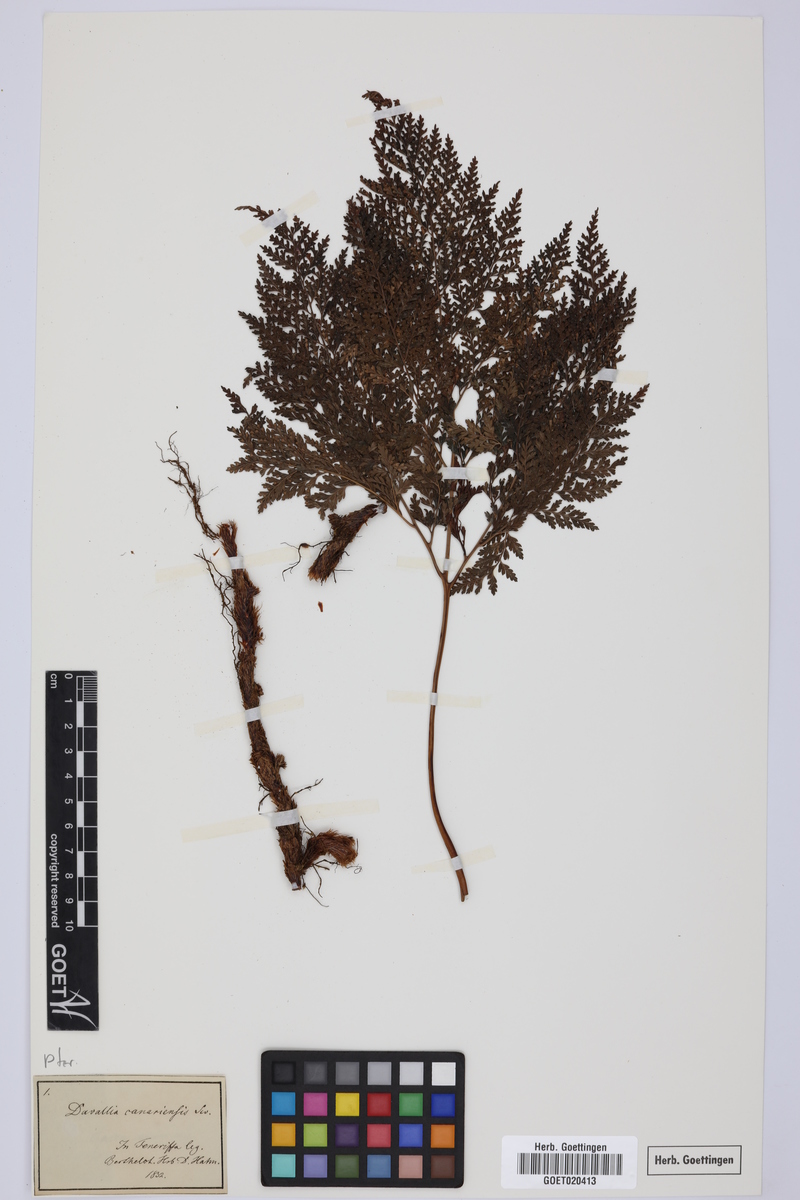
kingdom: Plantae
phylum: Tracheophyta
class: Polypodiopsida
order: Polypodiales
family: Davalliaceae
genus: Davallia
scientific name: Davallia canariensis
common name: Hare's-foot fern
